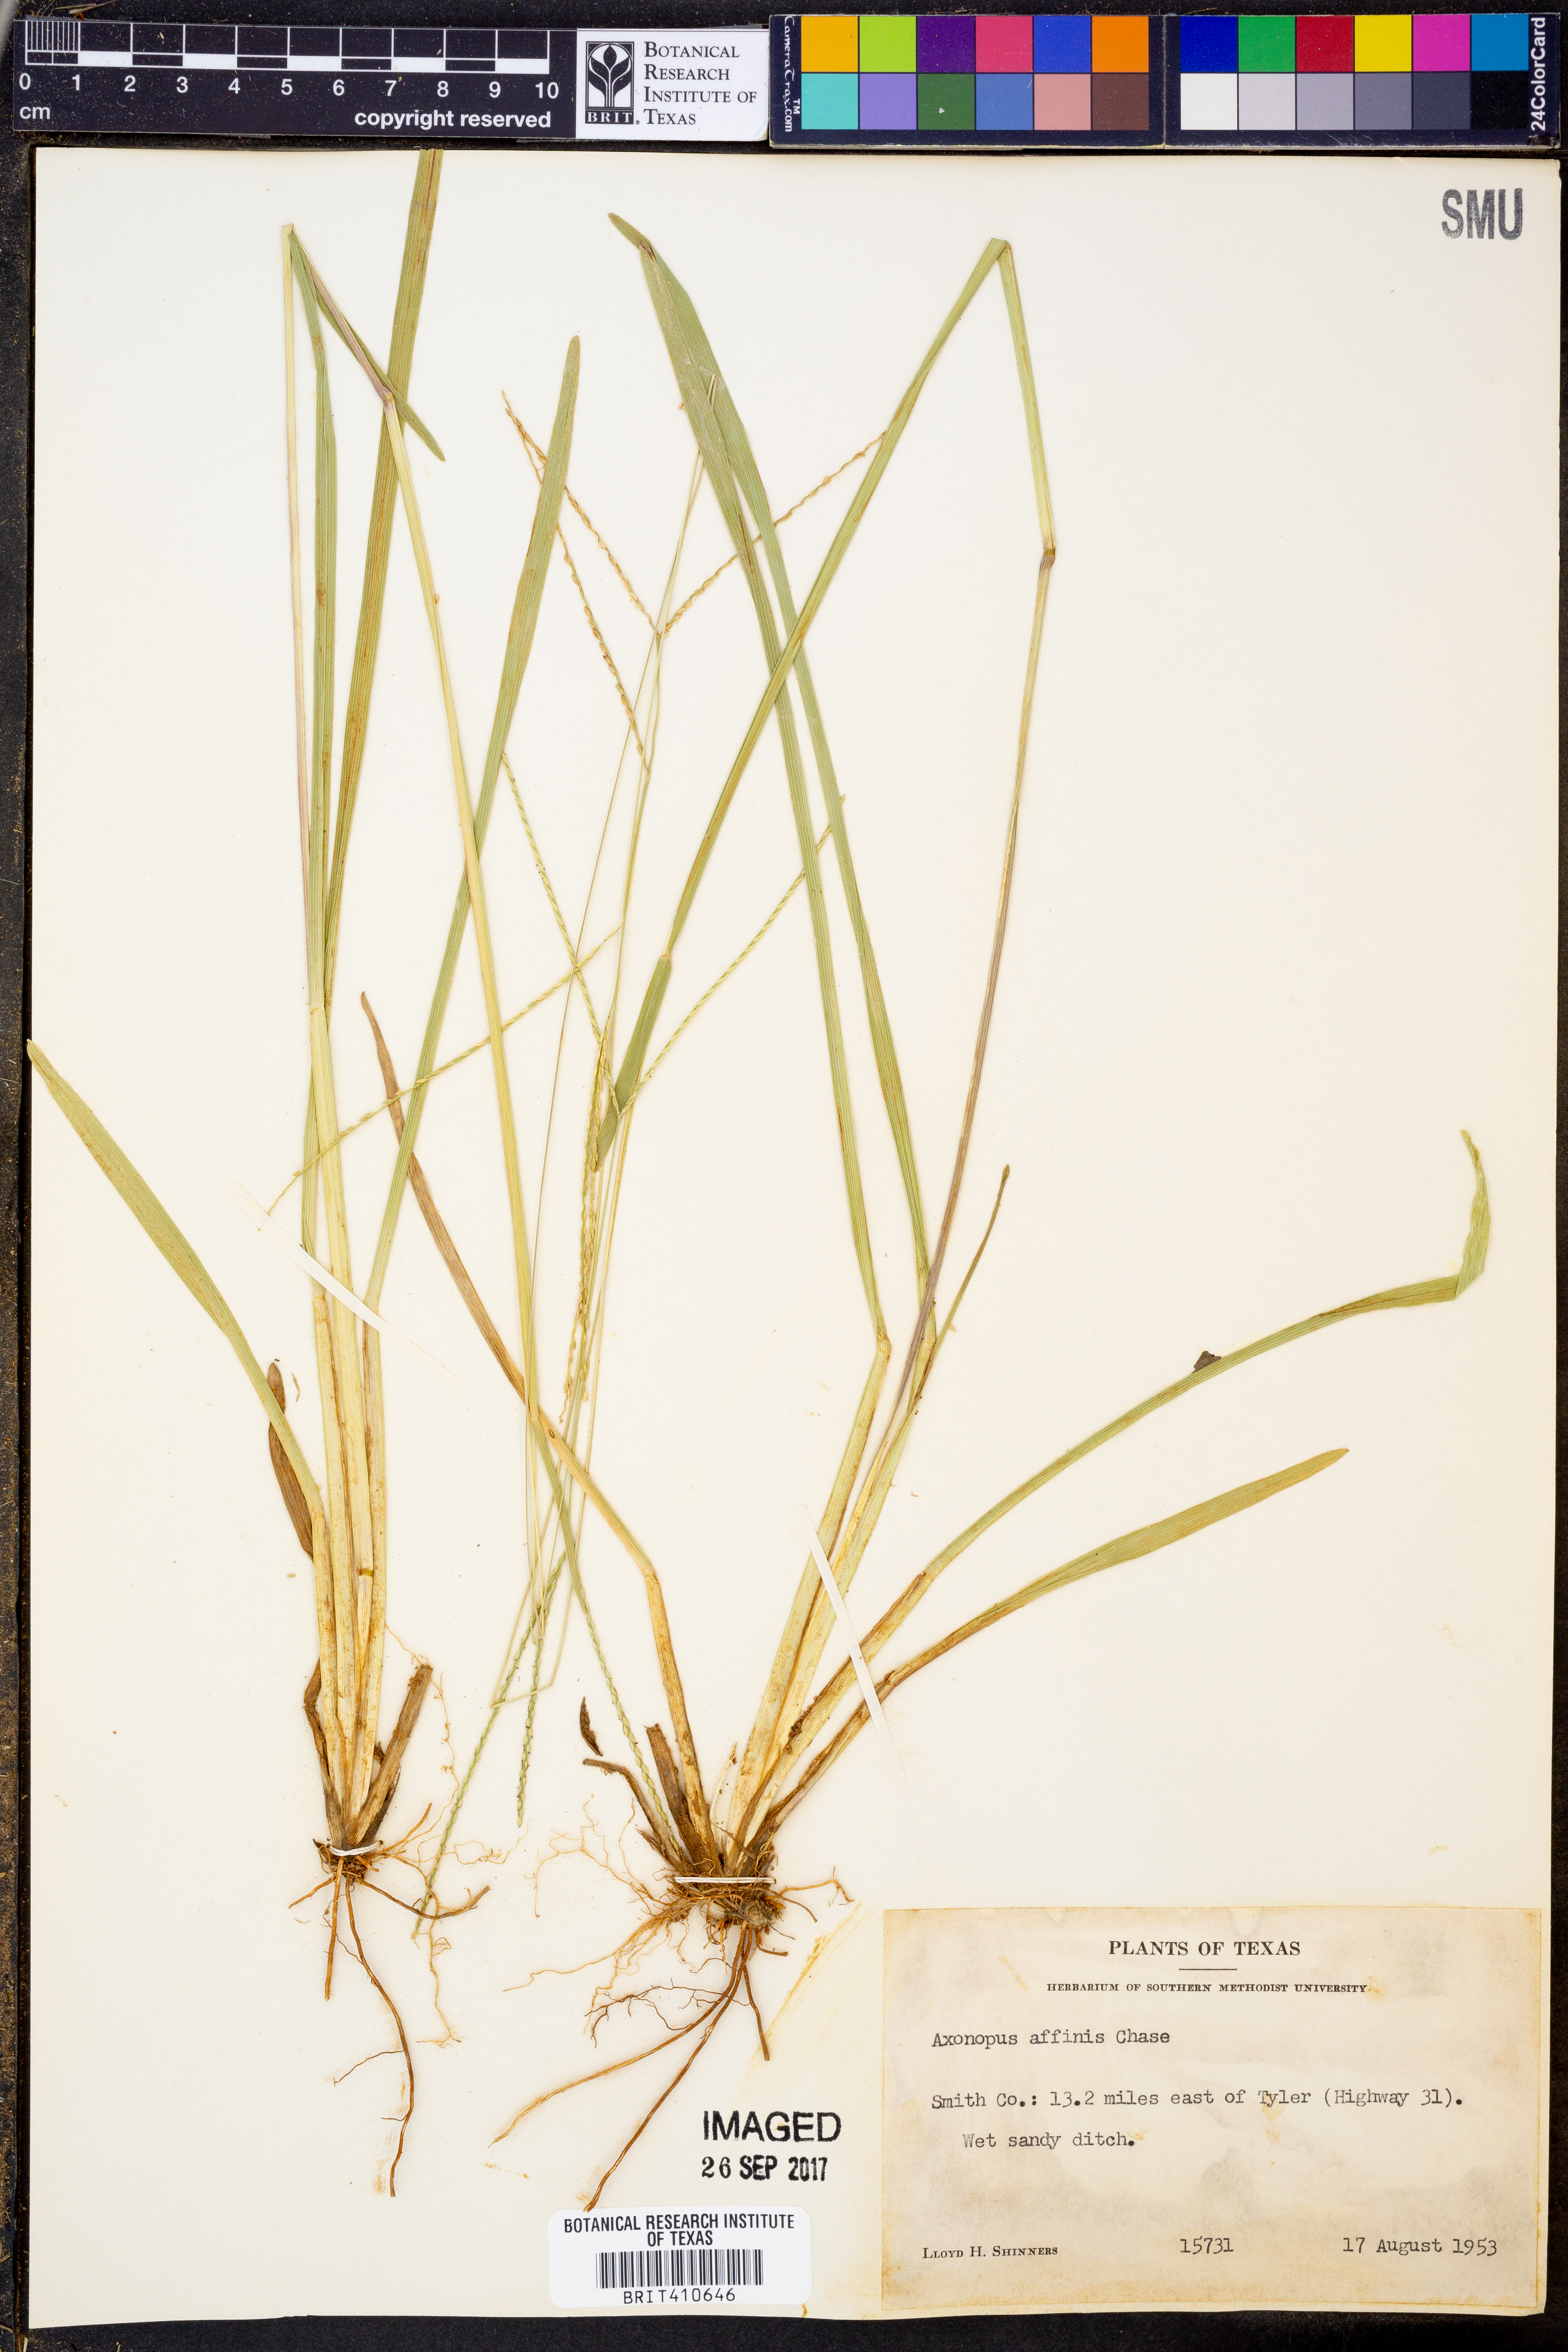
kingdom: Plantae
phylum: Tracheophyta
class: Liliopsida
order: Poales
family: Poaceae
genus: Axonopus
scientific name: Axonopus fissifolius
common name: Common carpetgrass
